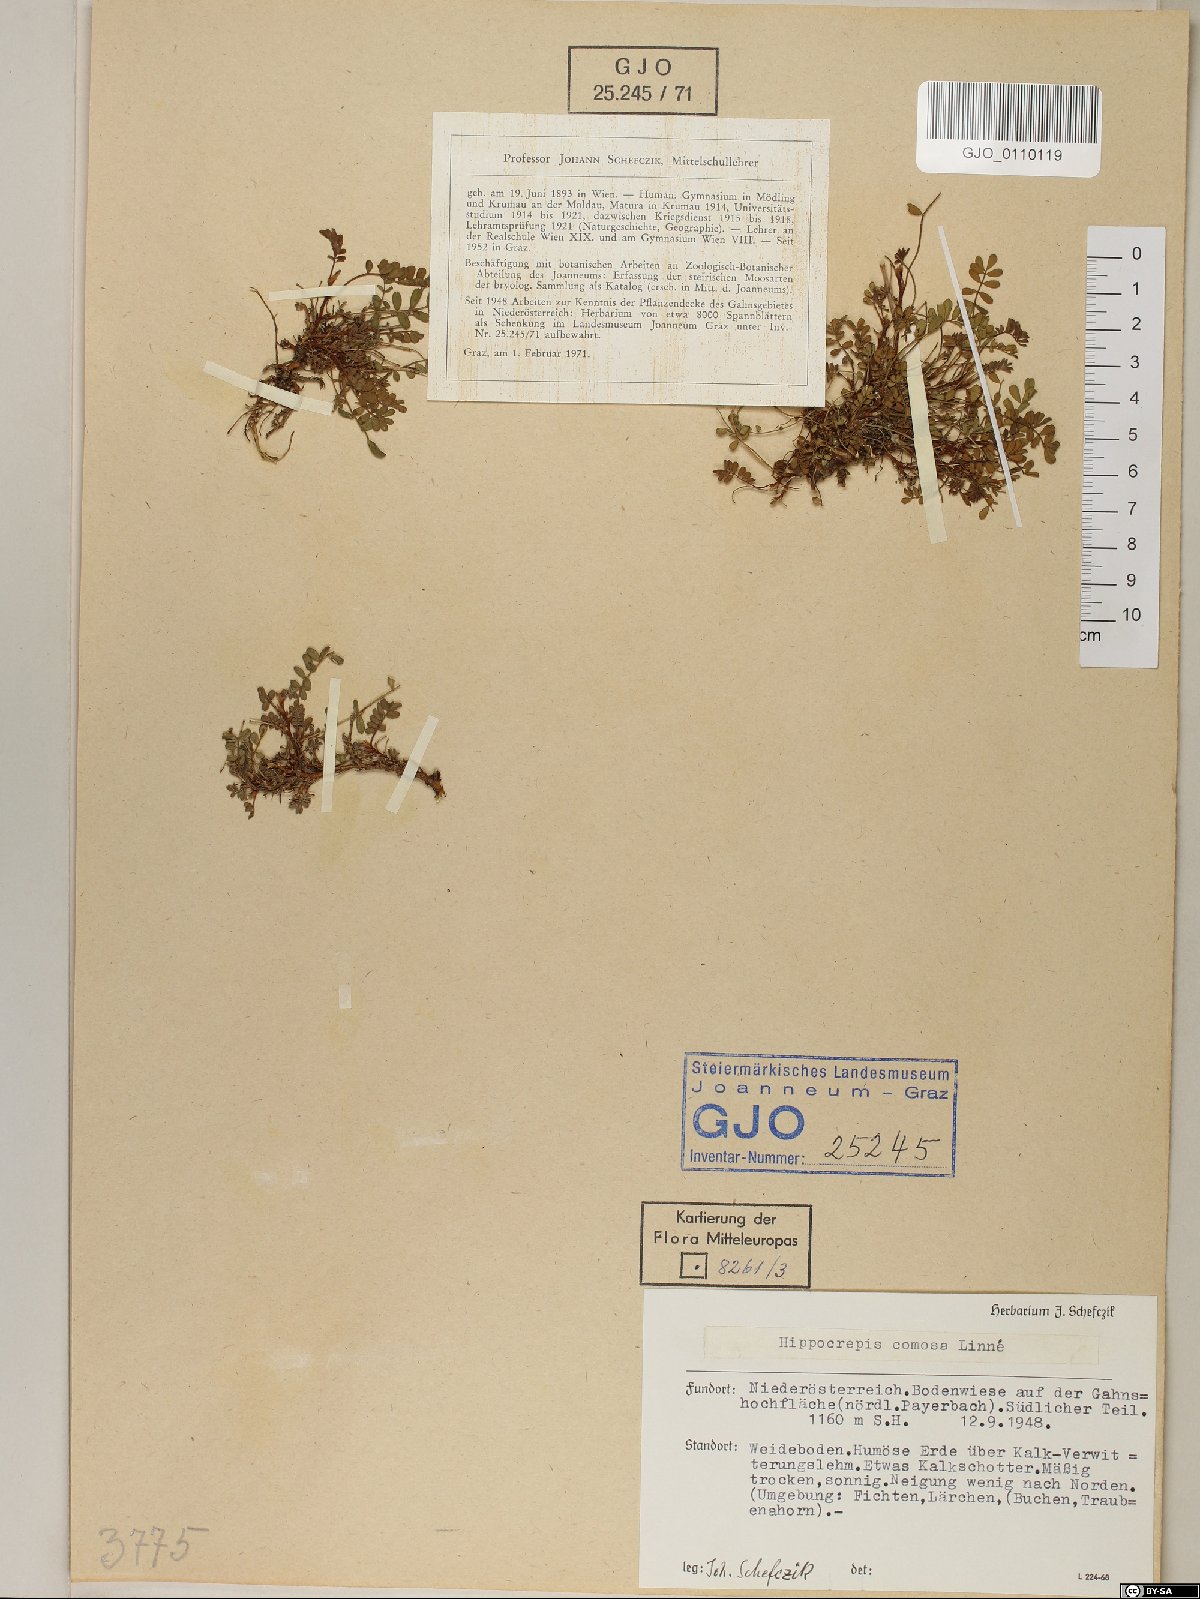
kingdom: Plantae
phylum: Tracheophyta
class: Magnoliopsida
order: Fabales
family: Fabaceae
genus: Hippocrepis
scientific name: Hippocrepis comosa
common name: Horseshoe vetch
